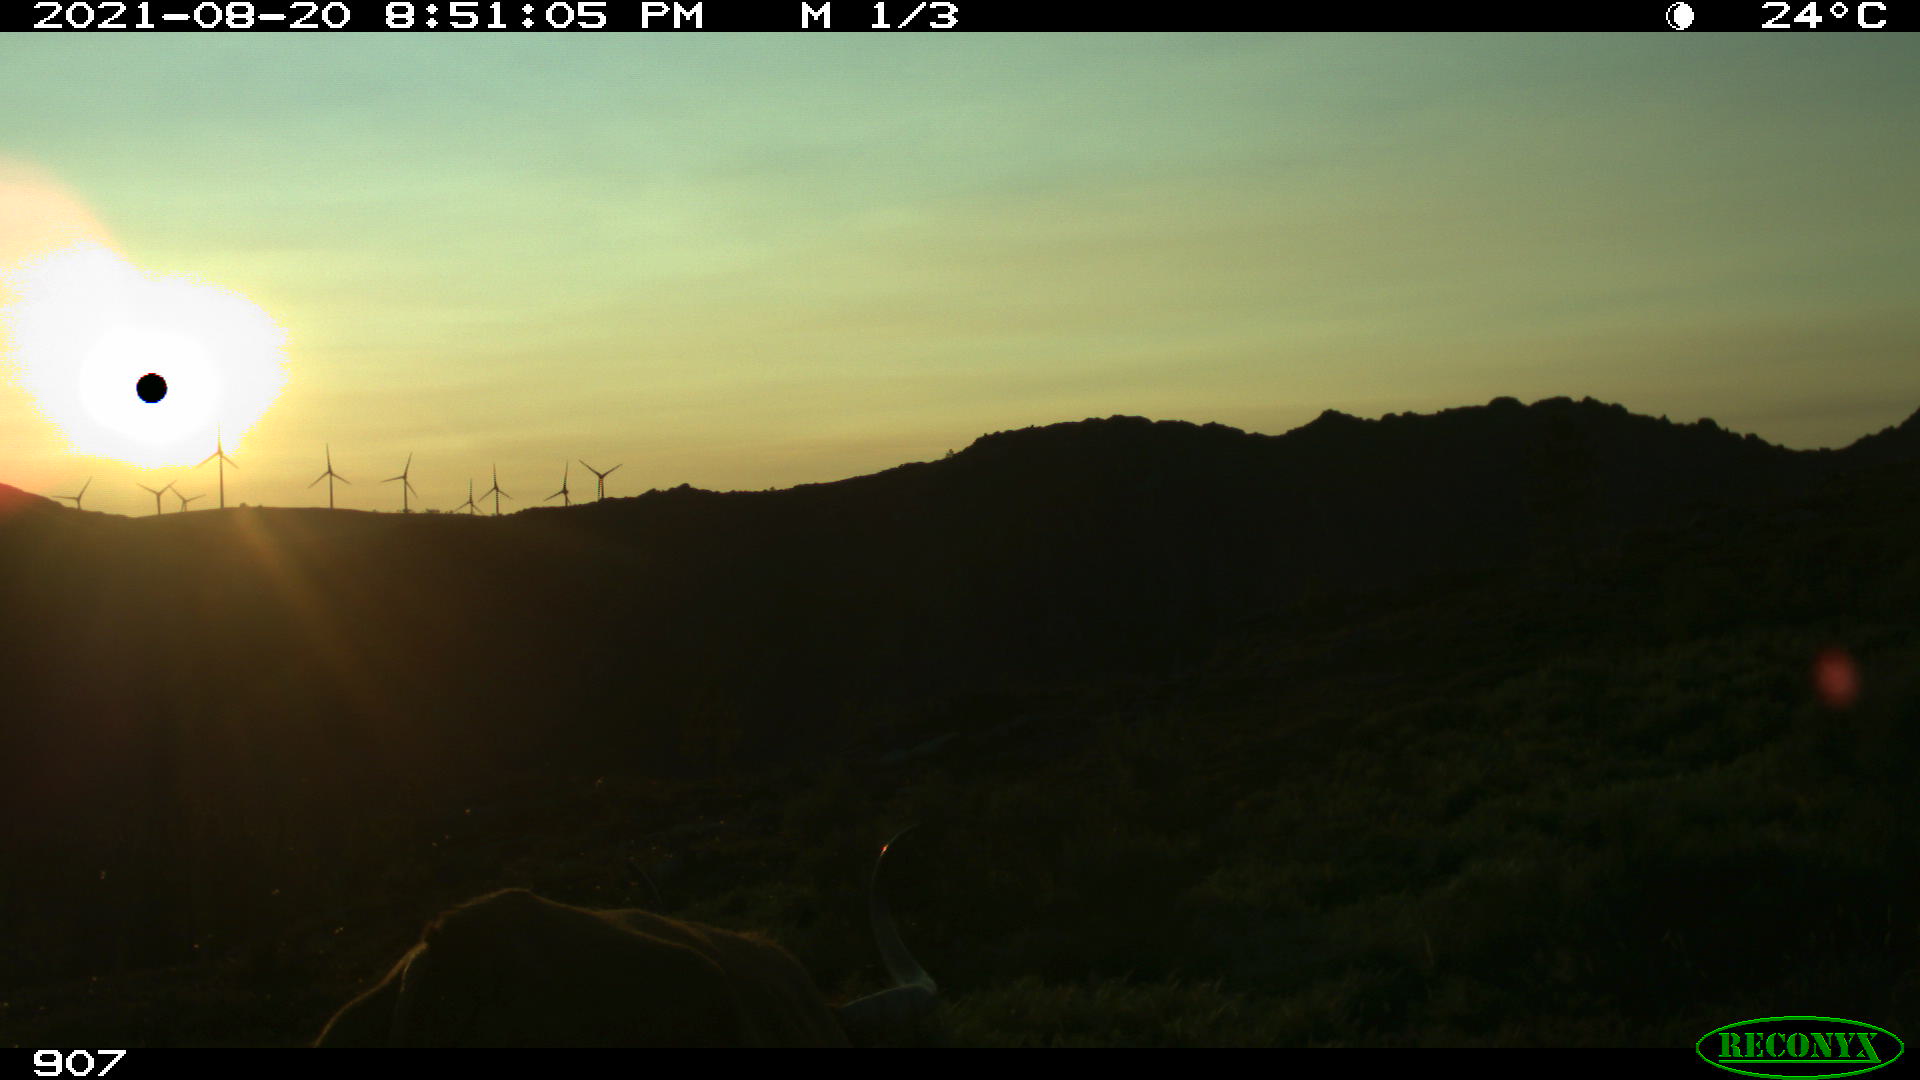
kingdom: Animalia
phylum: Chordata
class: Mammalia
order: Artiodactyla
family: Bovidae
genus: Bos
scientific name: Bos taurus
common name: Domesticated cattle
